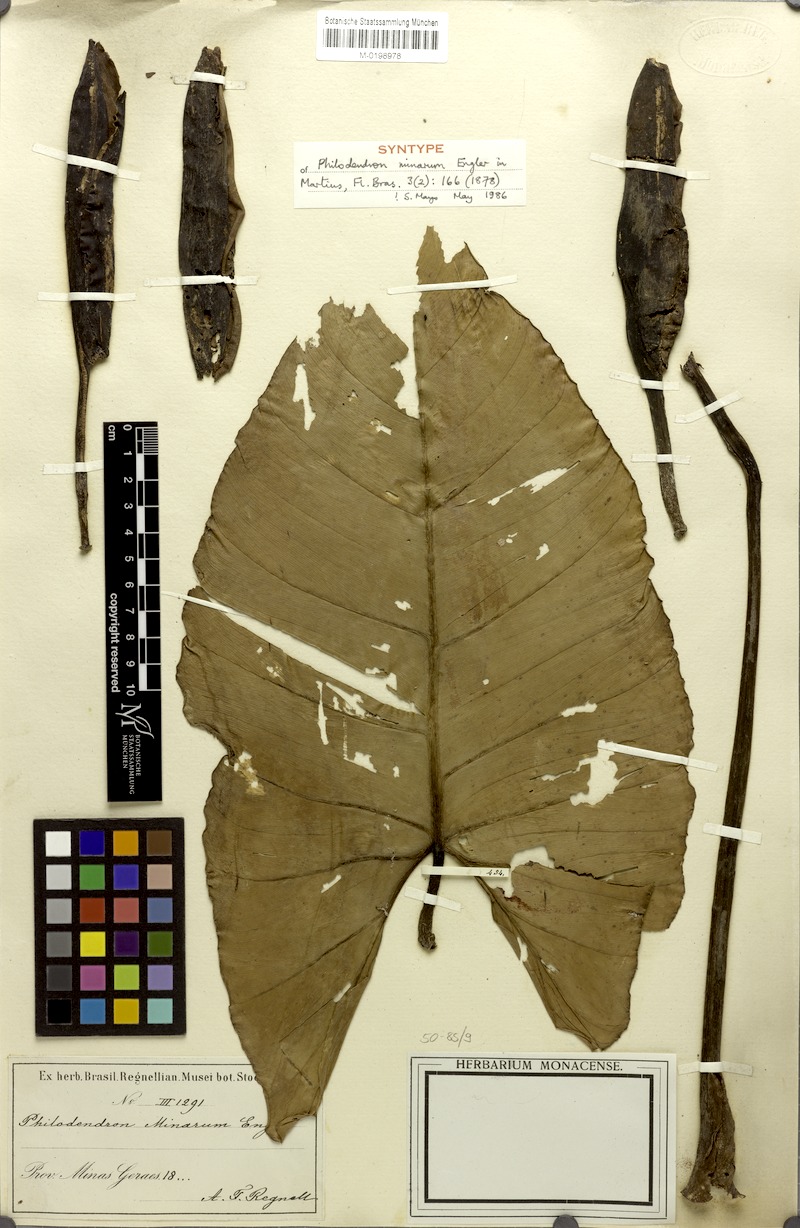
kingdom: Plantae
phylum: Tracheophyta
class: Liliopsida
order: Alismatales
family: Araceae
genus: Philodendron
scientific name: Philodendron minarum
